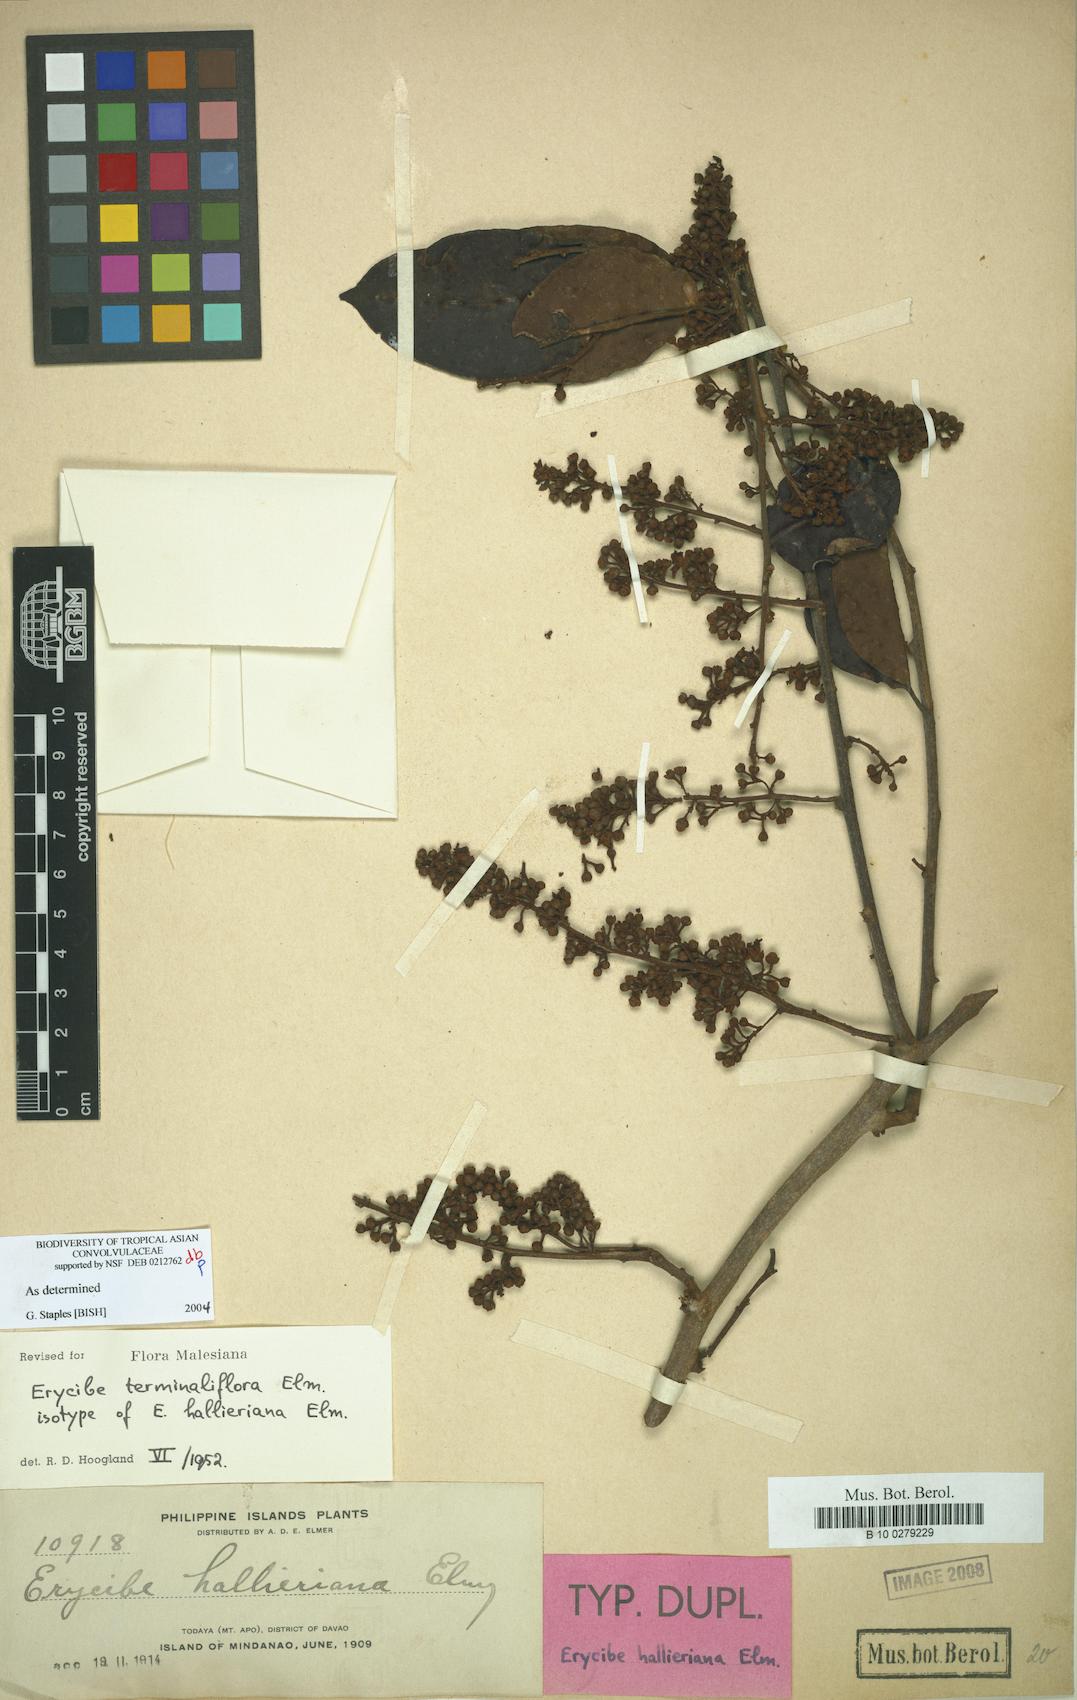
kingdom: Plantae
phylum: Tracheophyta
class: Magnoliopsida
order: Solanales
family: Convolvulaceae
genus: Erycibe
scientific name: Erycibe terminaliflora
